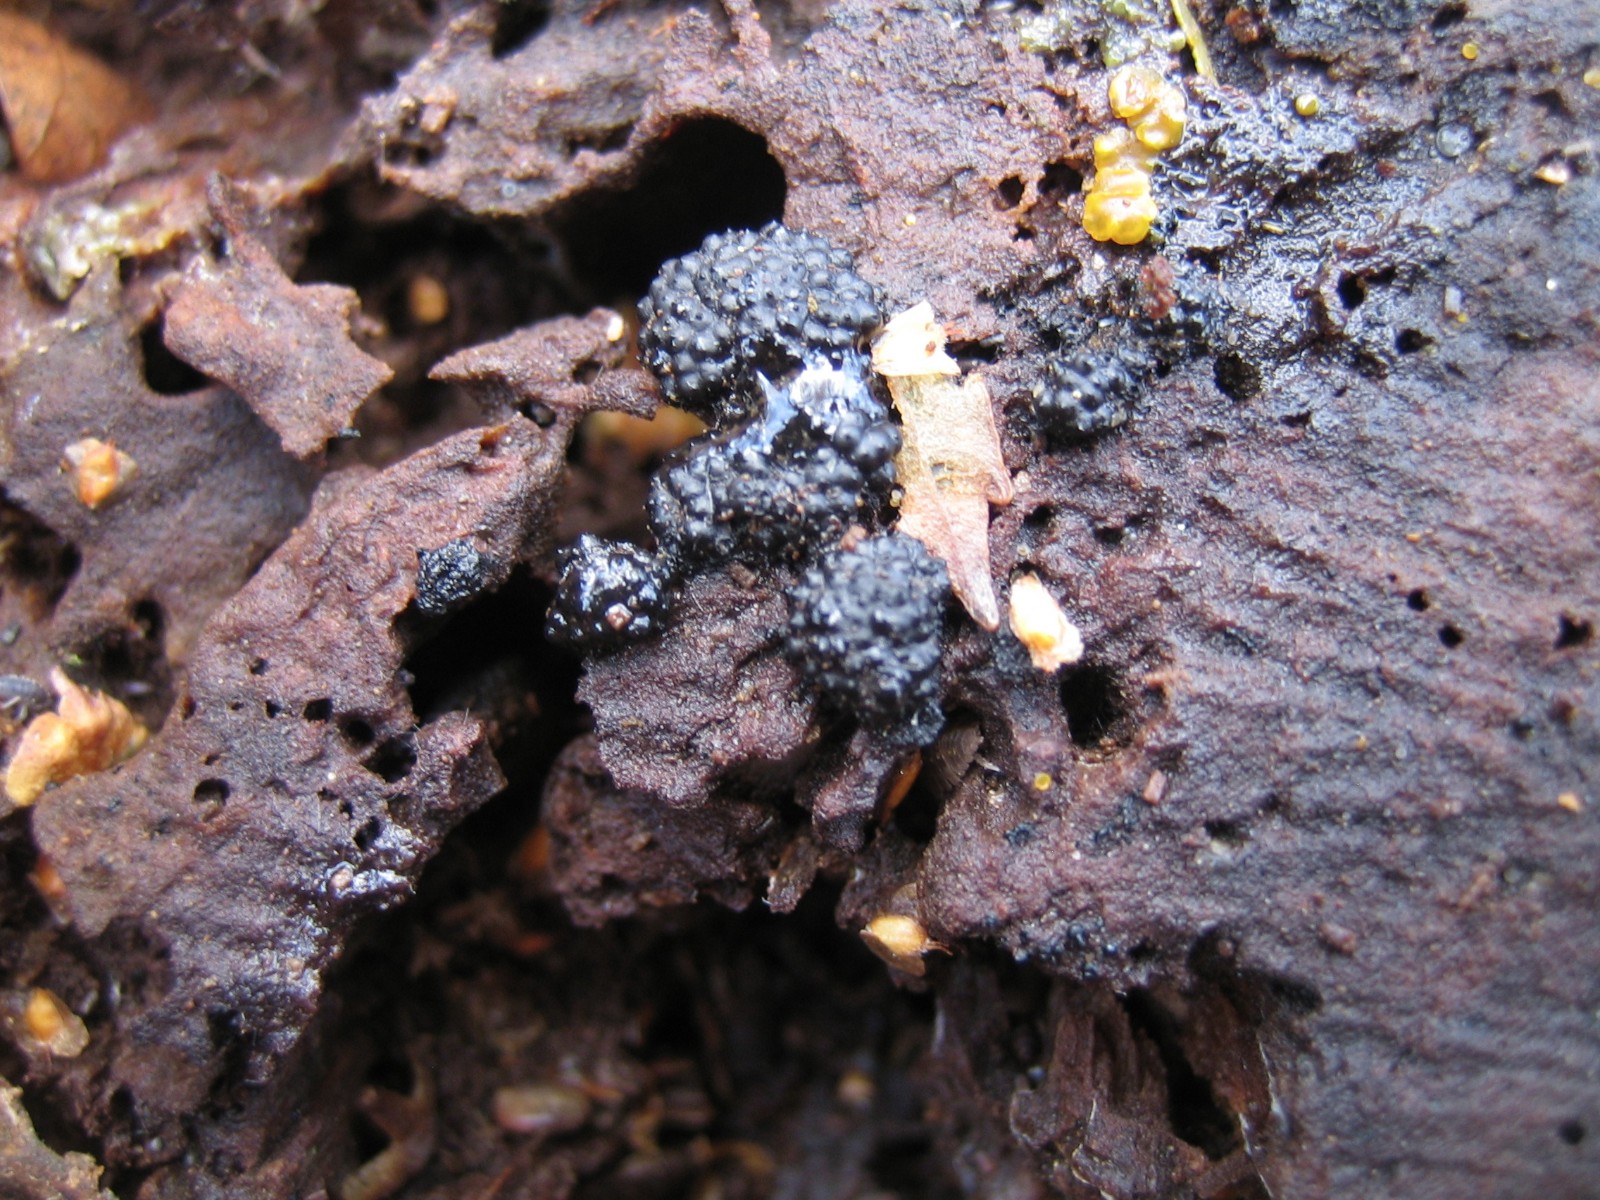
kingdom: Fungi
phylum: Ascomycota
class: Sordariomycetes
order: Xylariales
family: Hypoxylaceae
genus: Jackrogersella
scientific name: Jackrogersella multiformis
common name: foranderlig kulbær
